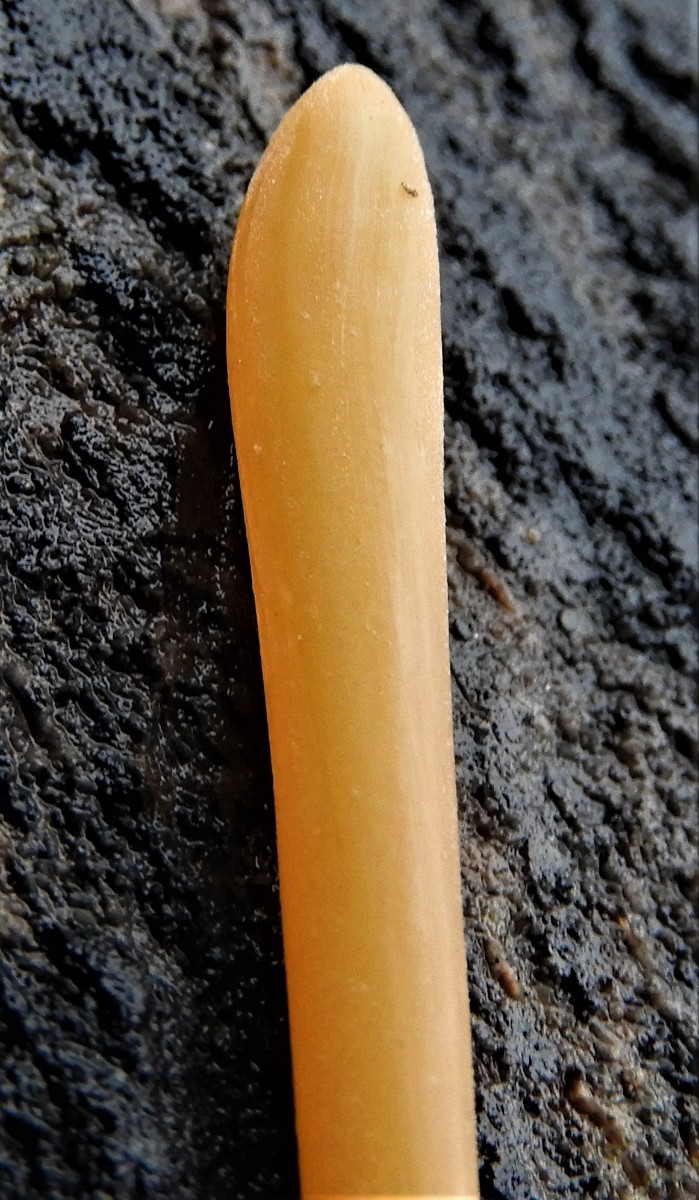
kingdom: Fungi
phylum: Basidiomycota
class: Agaricomycetes
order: Agaricales
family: Typhulaceae
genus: Typhula
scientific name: Typhula fistulosa
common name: pibet rørkølle
